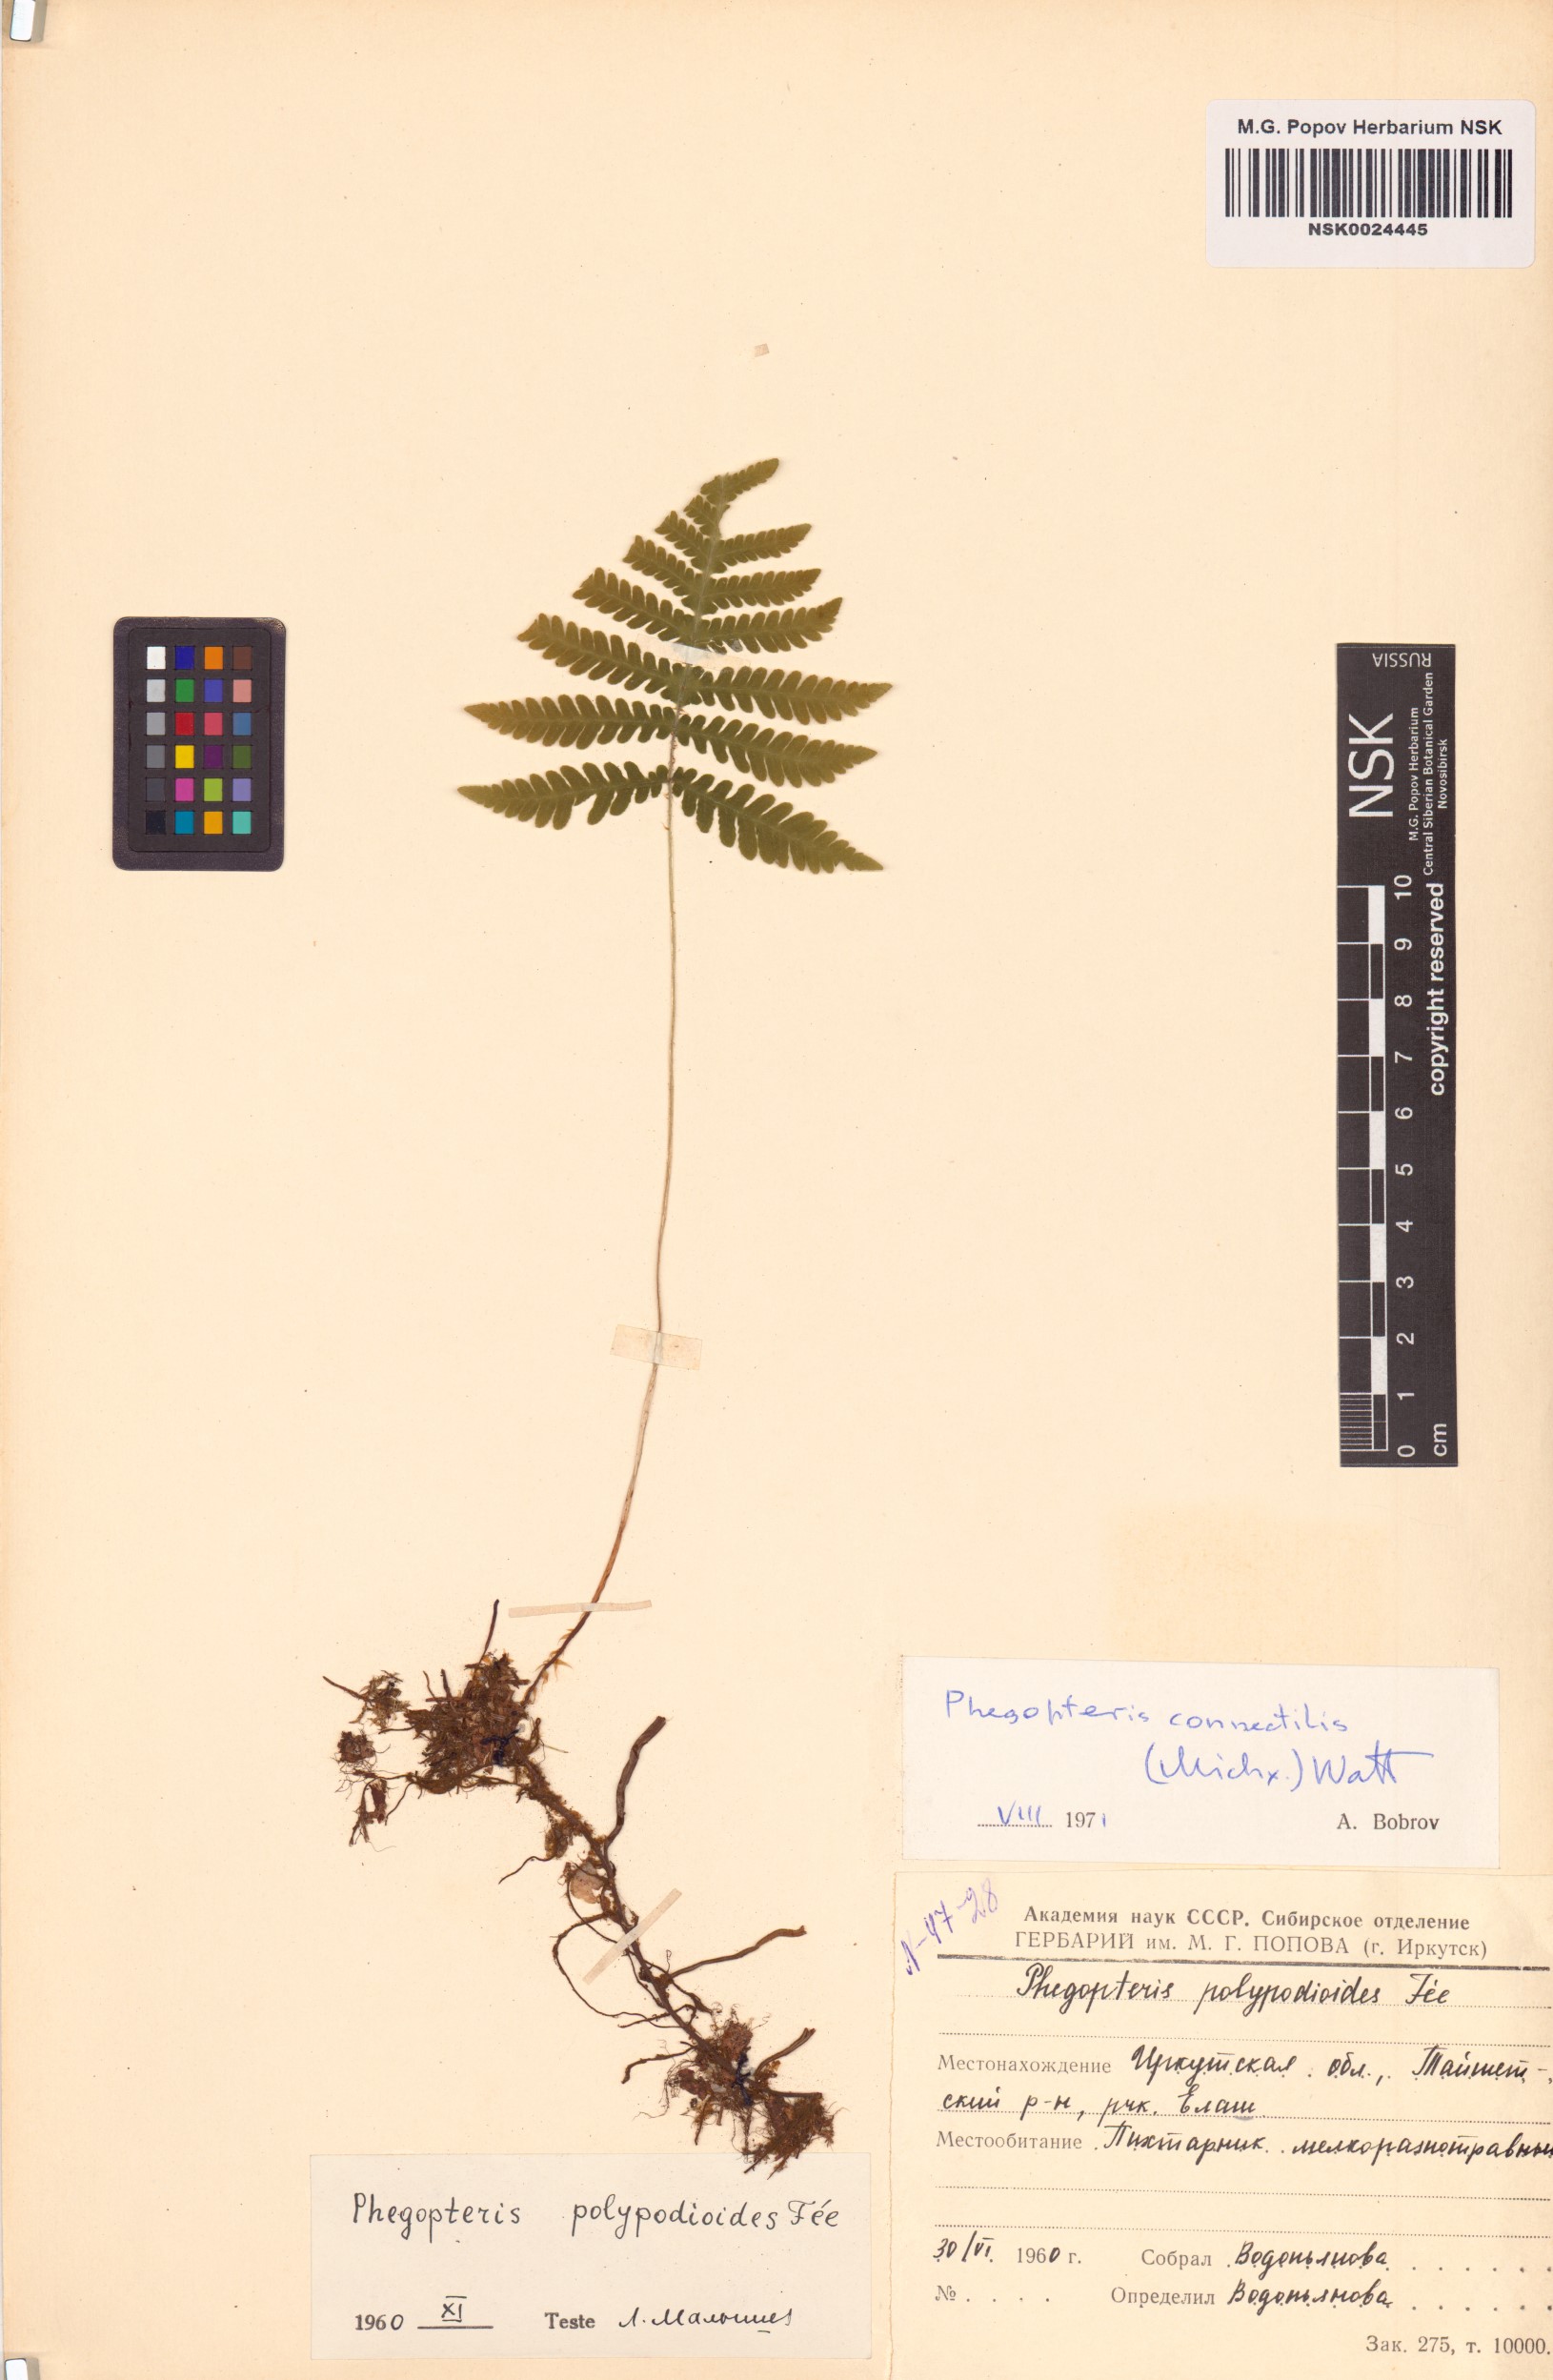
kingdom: Plantae
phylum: Tracheophyta
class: Polypodiopsida
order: Polypodiales
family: Thelypteridaceae
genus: Phegopteris
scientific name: Phegopteris connectilis
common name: Beech fern
